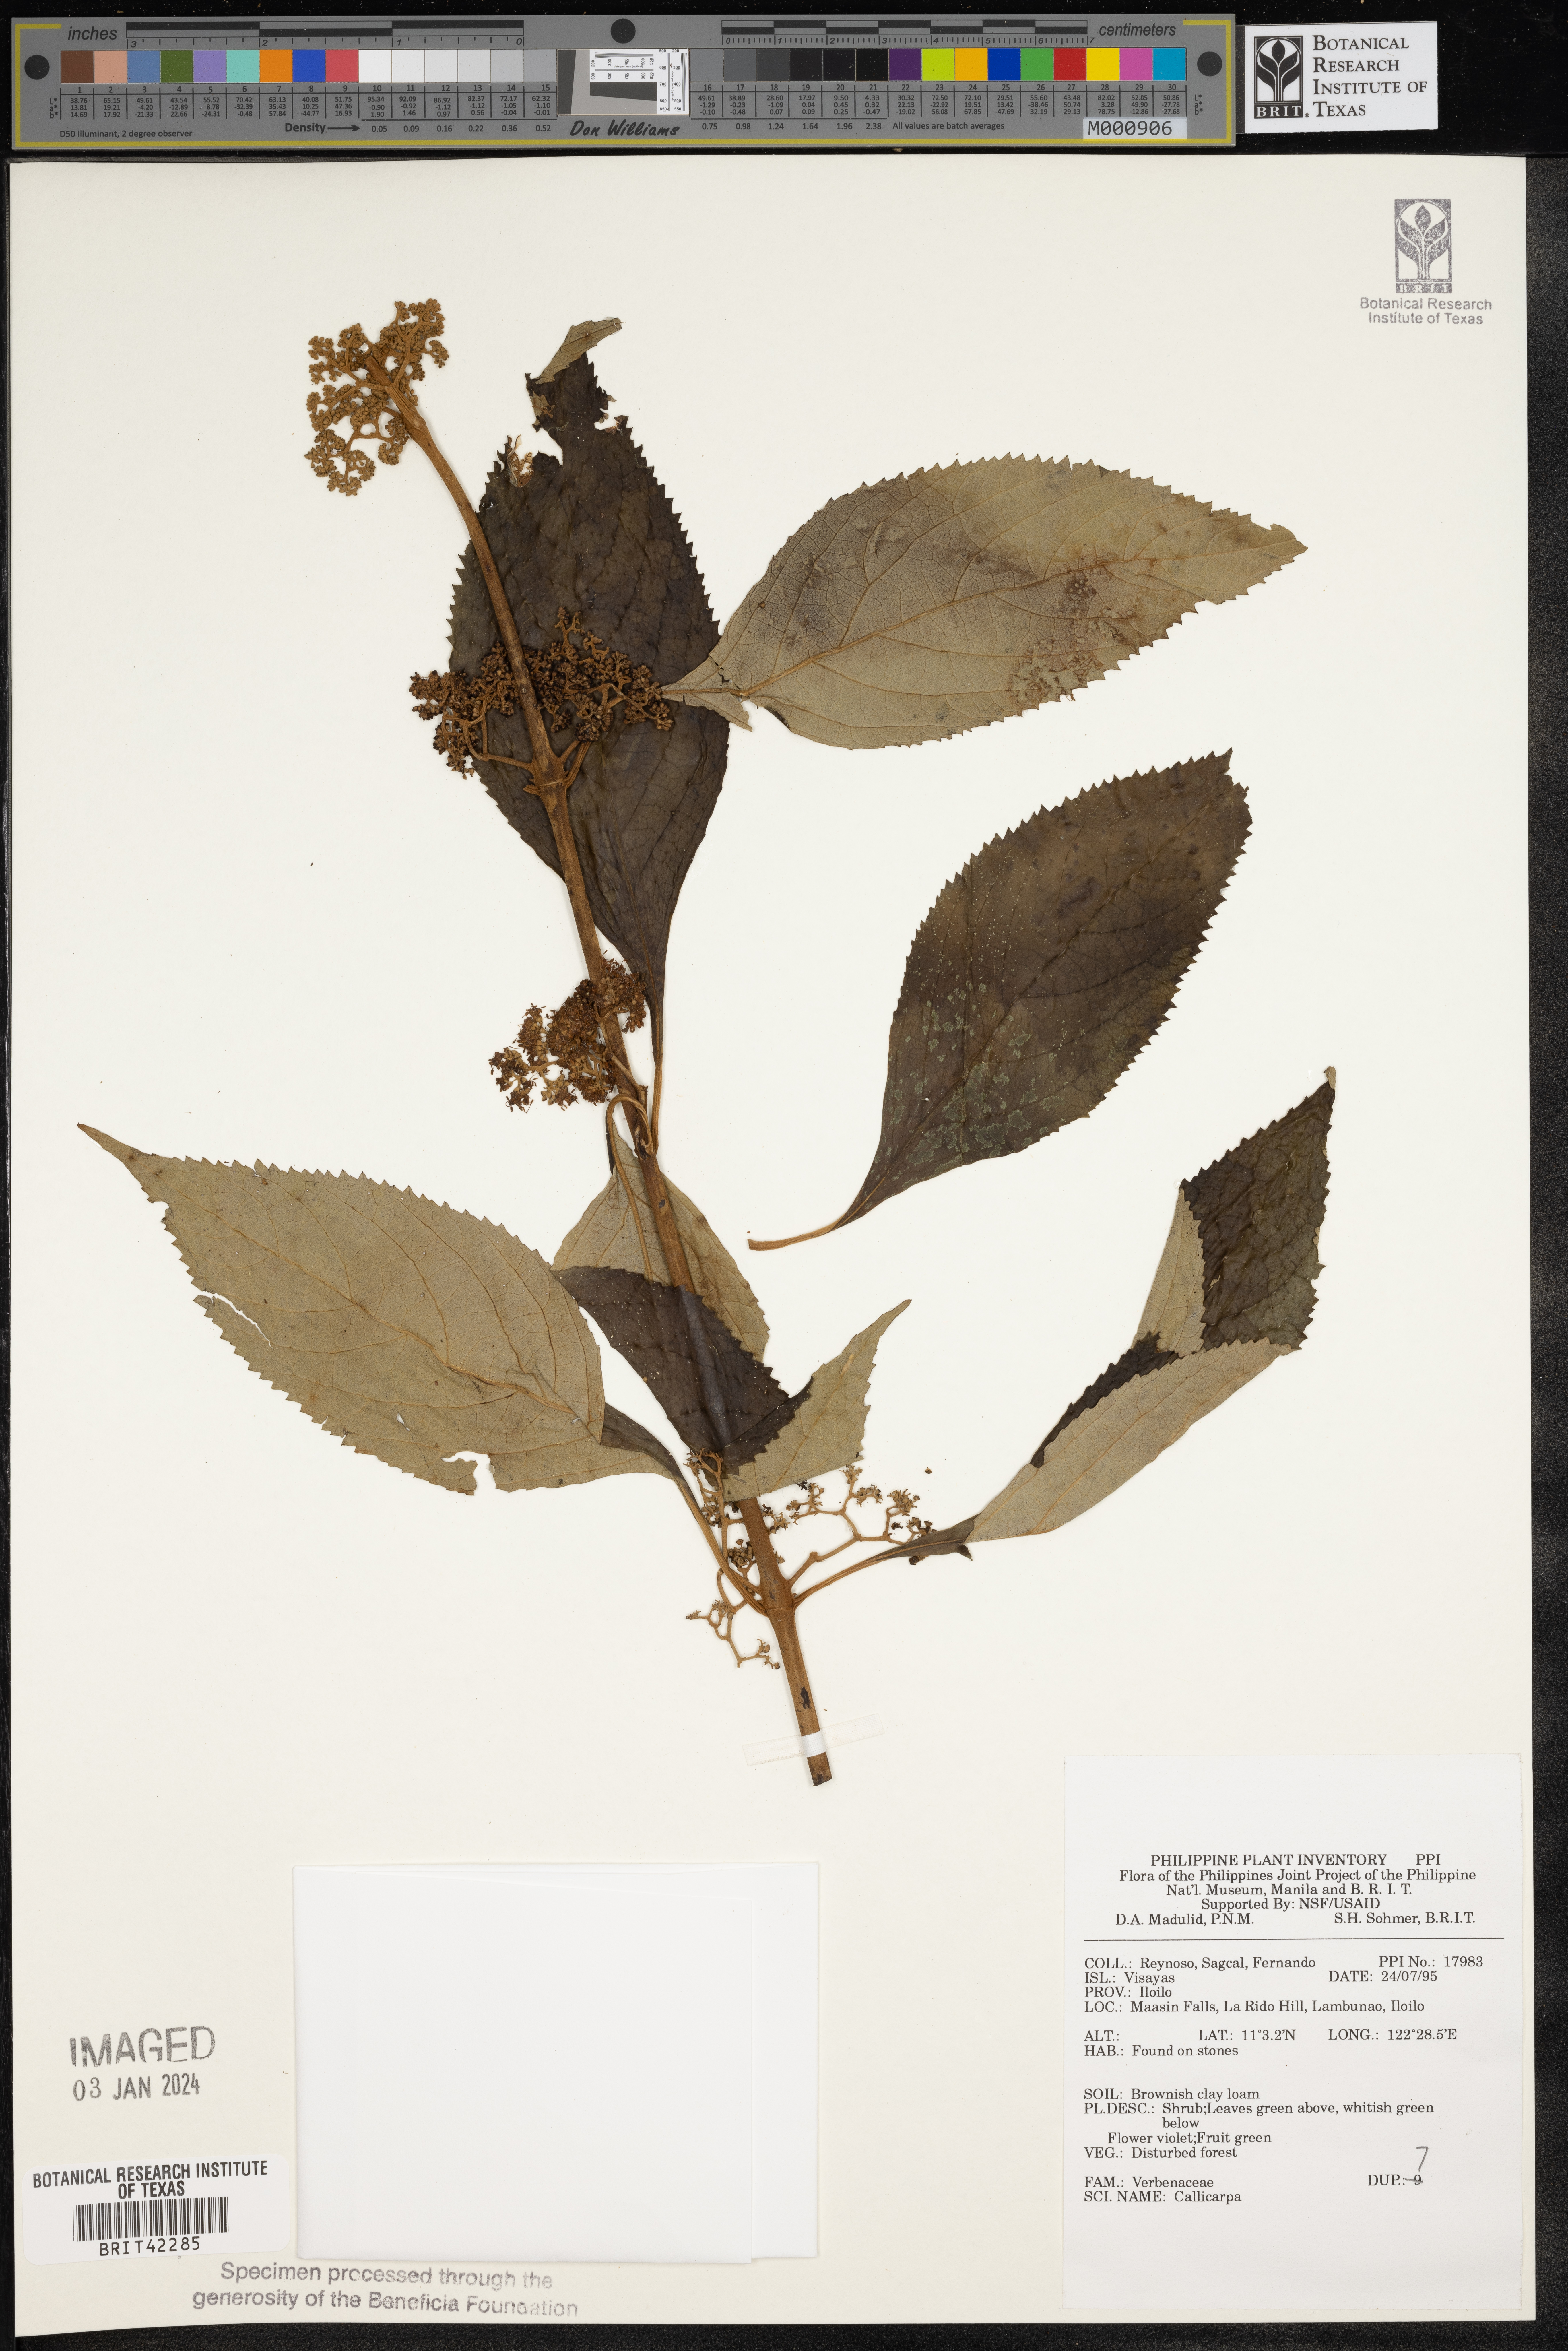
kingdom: Plantae
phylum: Tracheophyta
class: Magnoliopsida
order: Lamiales
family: Lamiaceae
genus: Callicarpa
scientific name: Callicarpa
